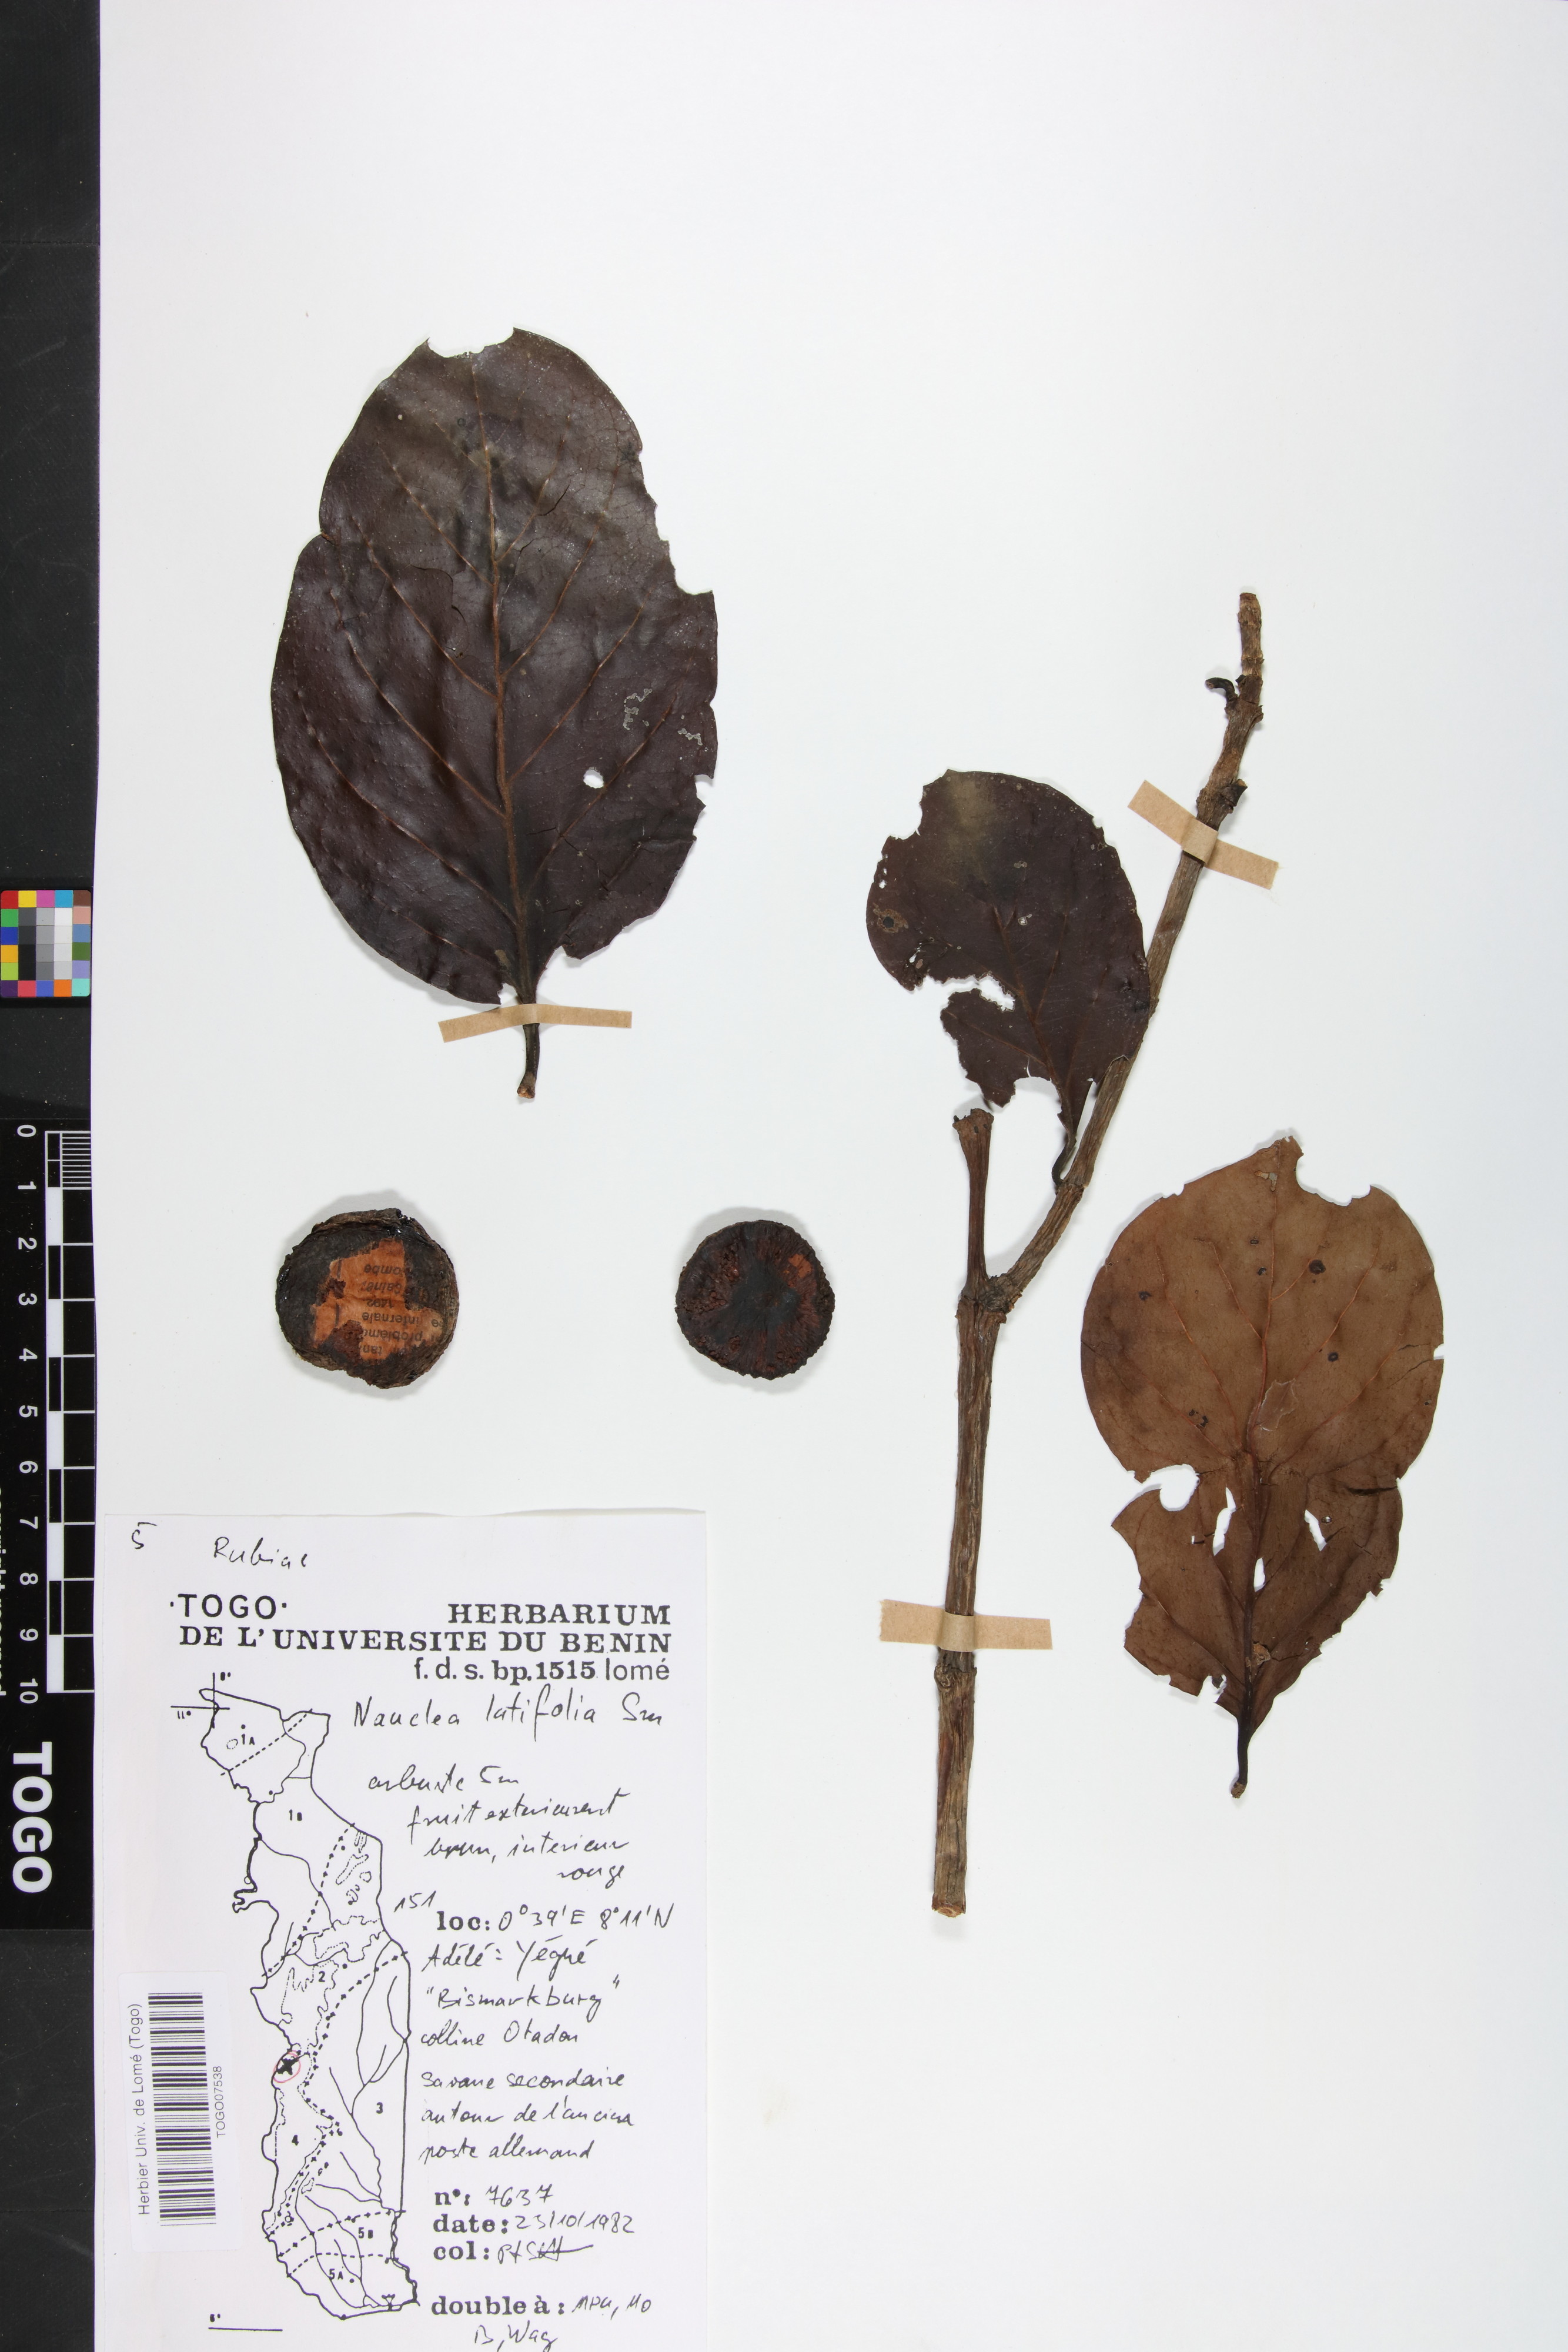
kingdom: Plantae
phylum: Tracheophyta
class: Magnoliopsida
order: Gentianales
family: Rubiaceae
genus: Nauclea
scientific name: Nauclea latifolia
